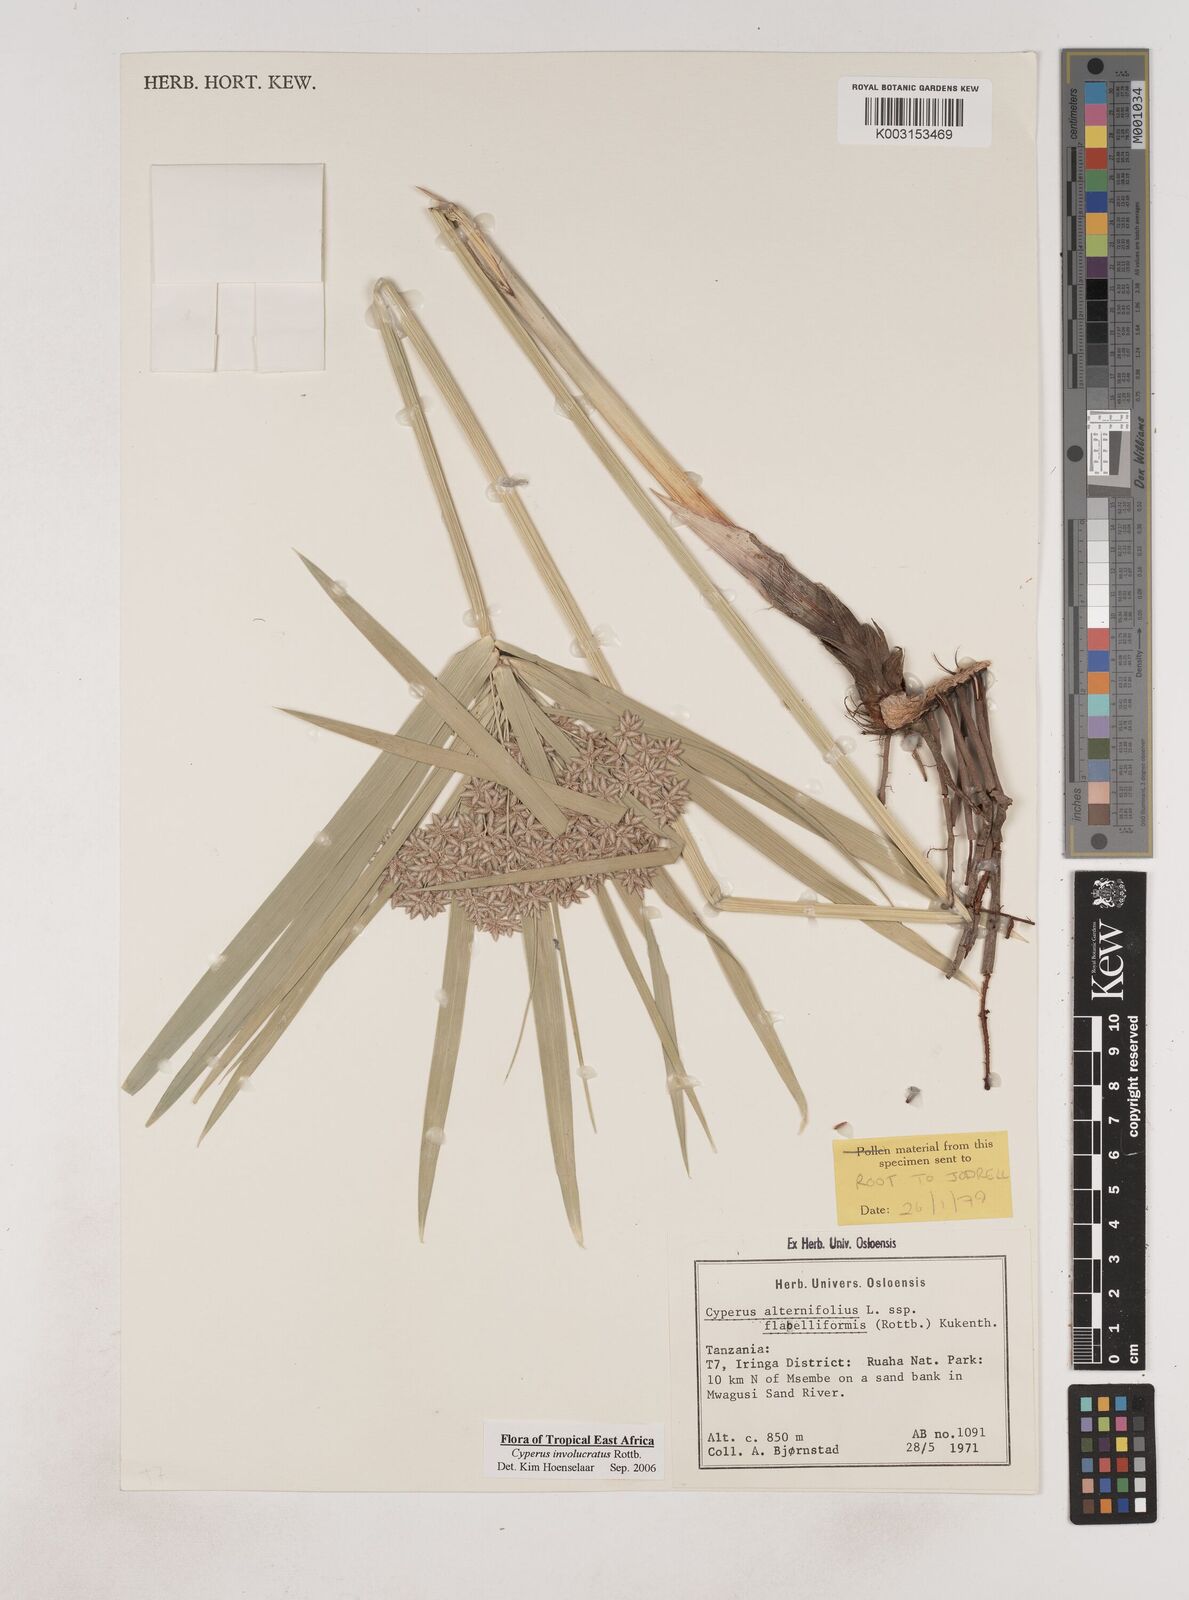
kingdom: Plantae
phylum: Tracheophyta
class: Liliopsida
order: Poales
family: Cyperaceae
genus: Cyperus
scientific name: Cyperus alternifolius
